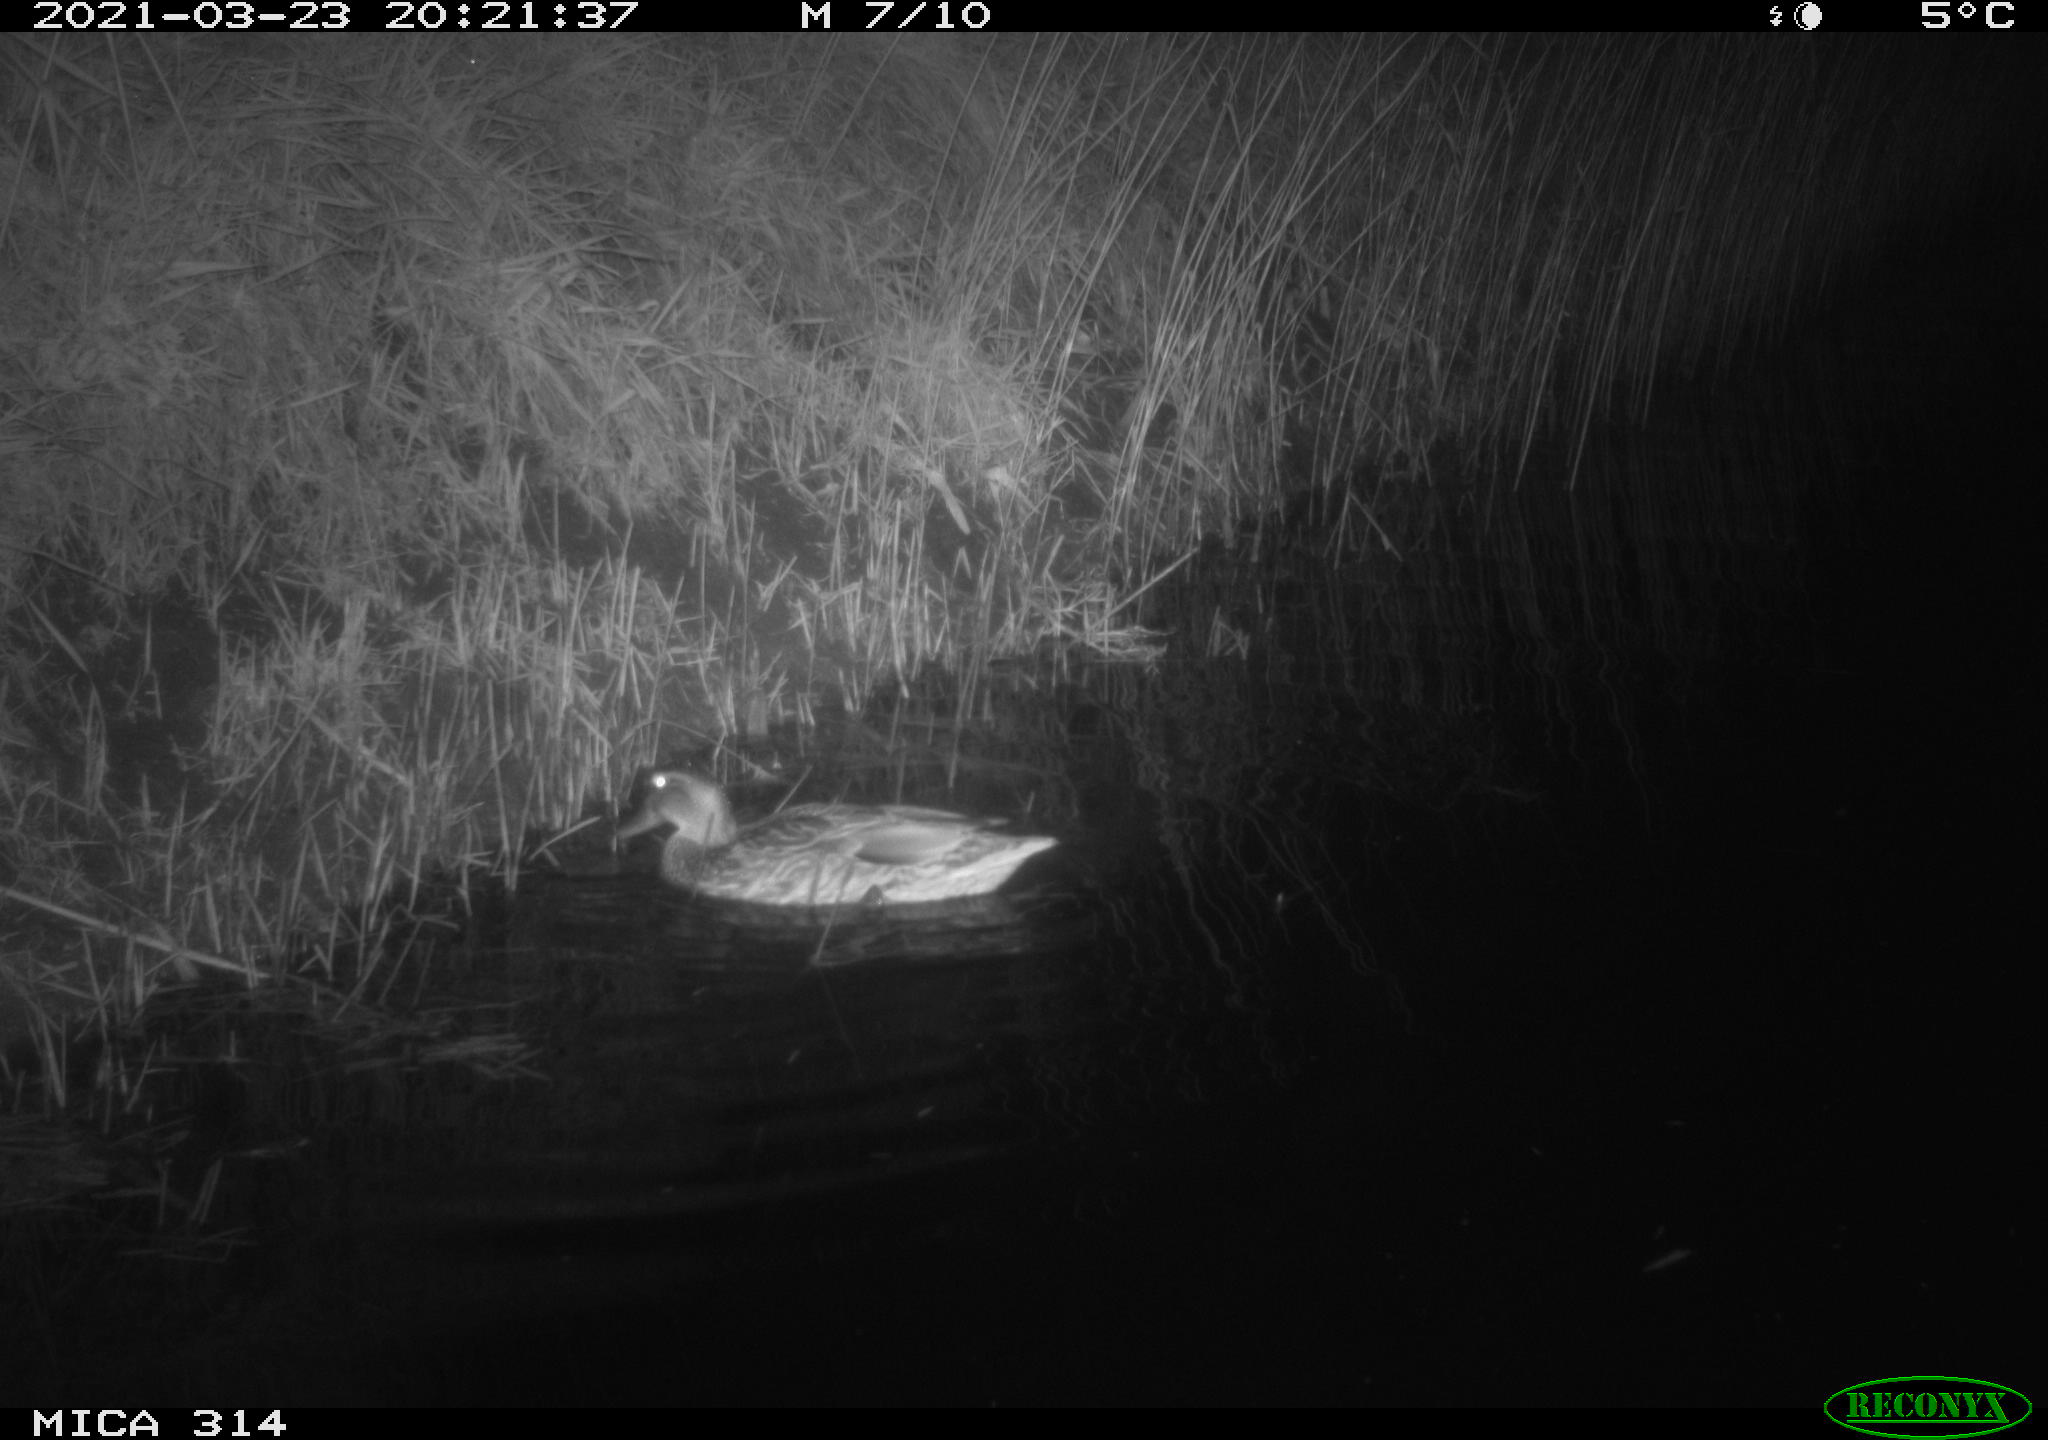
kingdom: Animalia
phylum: Chordata
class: Aves
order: Anseriformes
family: Anatidae
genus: Anas
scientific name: Anas platyrhynchos
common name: Mallard
